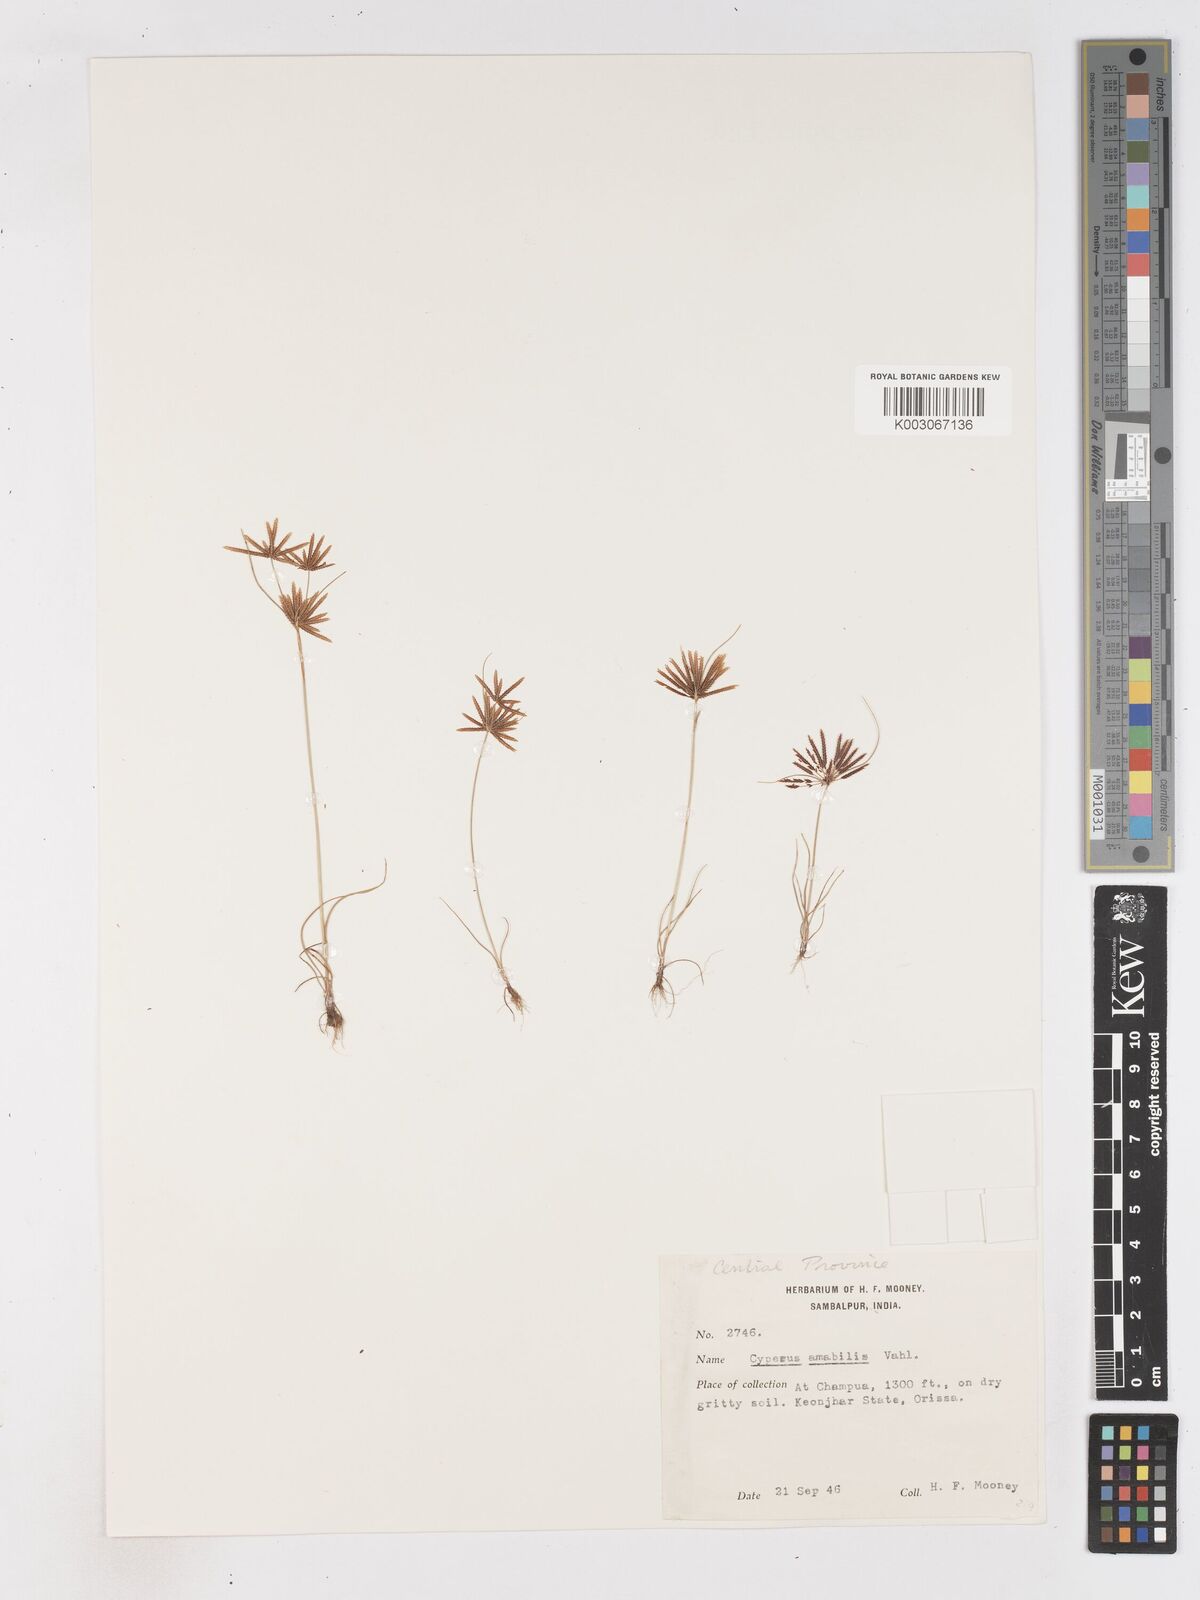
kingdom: Plantae
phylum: Tracheophyta
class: Liliopsida
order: Poales
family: Cyperaceae
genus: Cyperus
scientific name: Cyperus amabilis
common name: Foothill flat sedge
